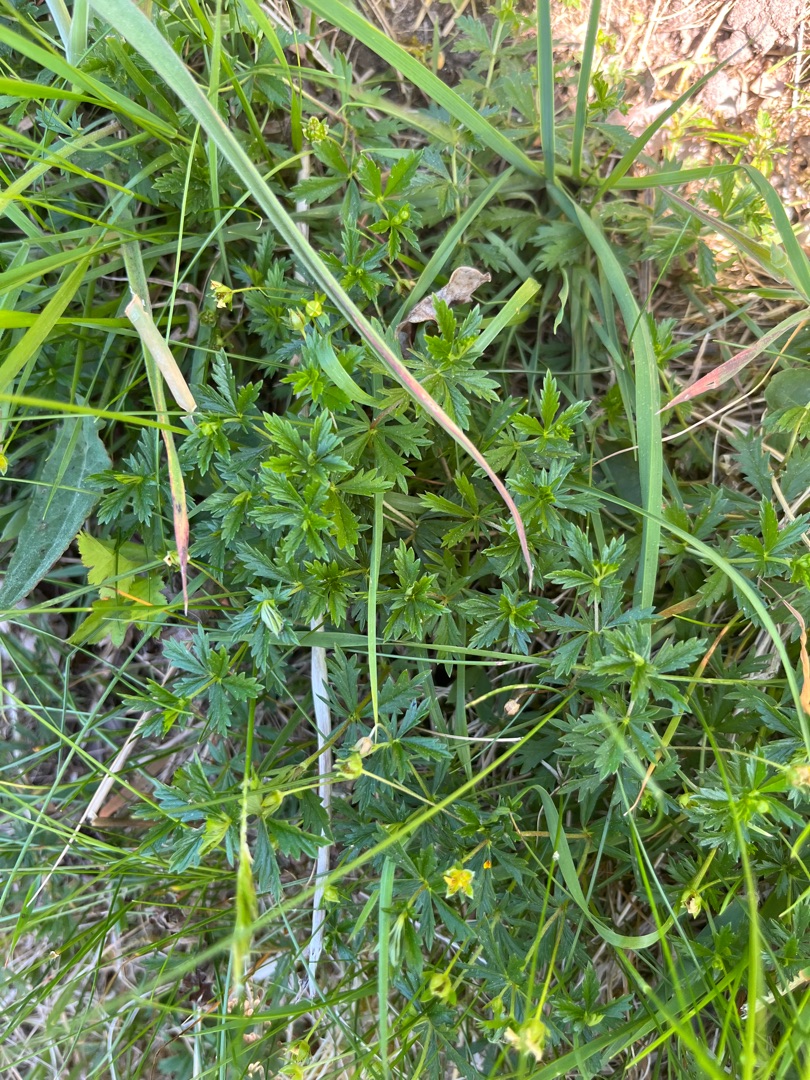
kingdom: Plantae
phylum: Tracheophyta
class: Magnoliopsida
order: Rosales
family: Rosaceae
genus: Potentilla
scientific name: Potentilla erecta
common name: Tormentil
